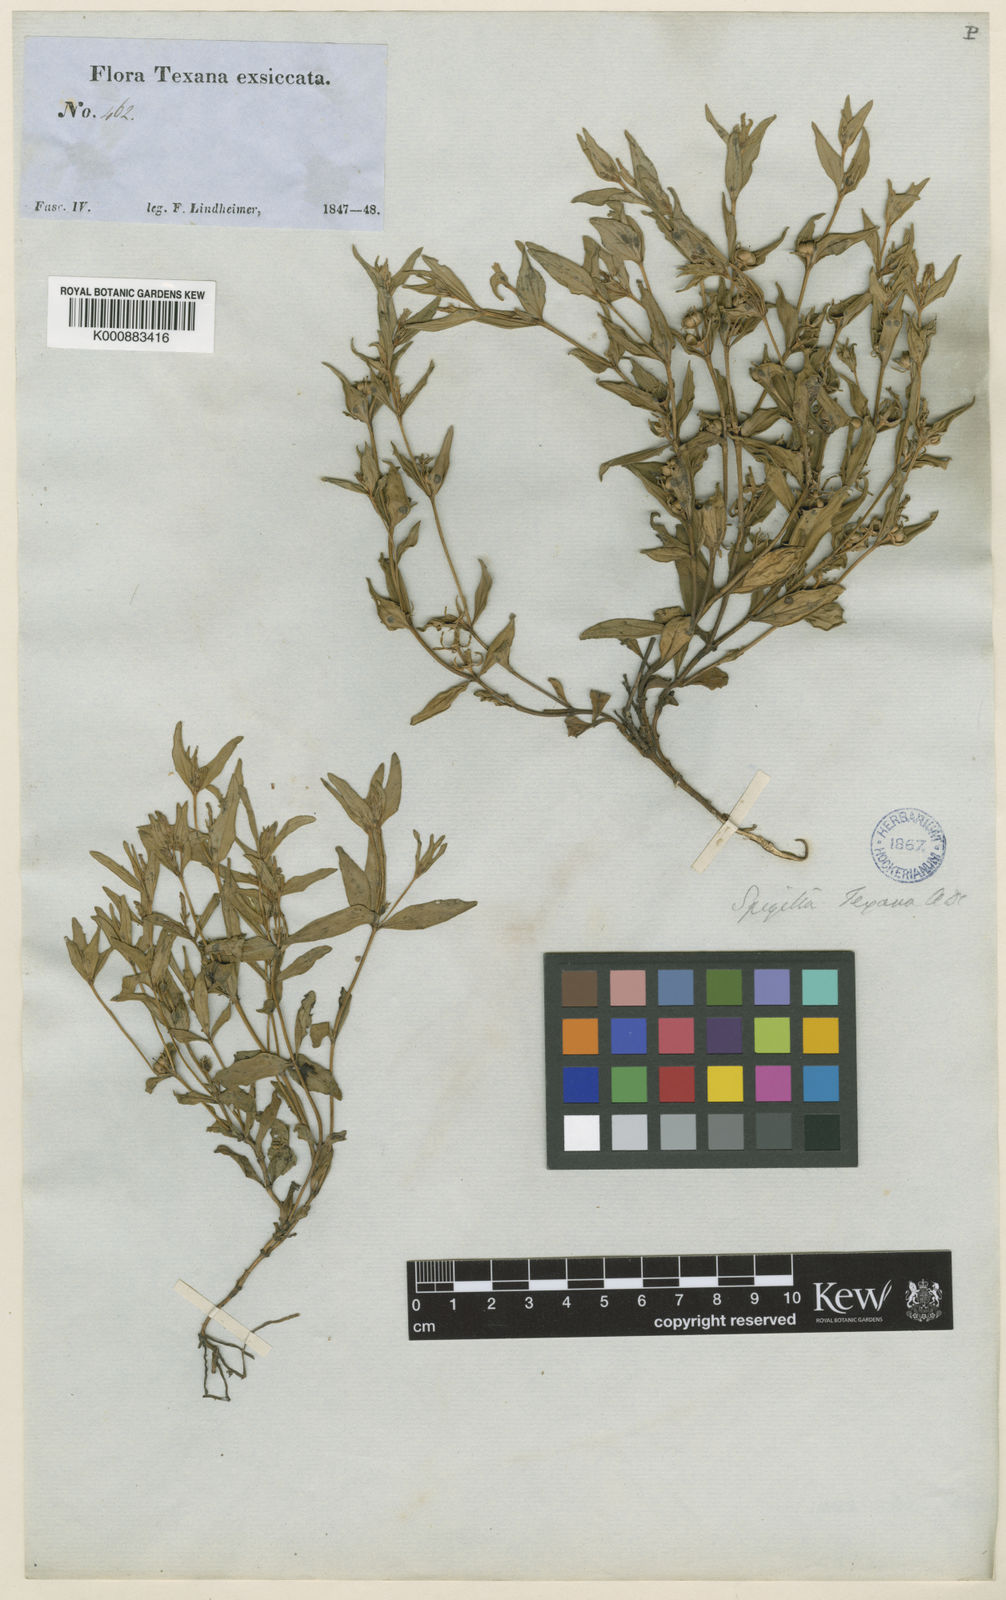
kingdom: Plantae
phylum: Tracheophyta
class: Magnoliopsida
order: Gentianales
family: Loganiaceae
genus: Spigelia
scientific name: Spigelia hedyotidea
